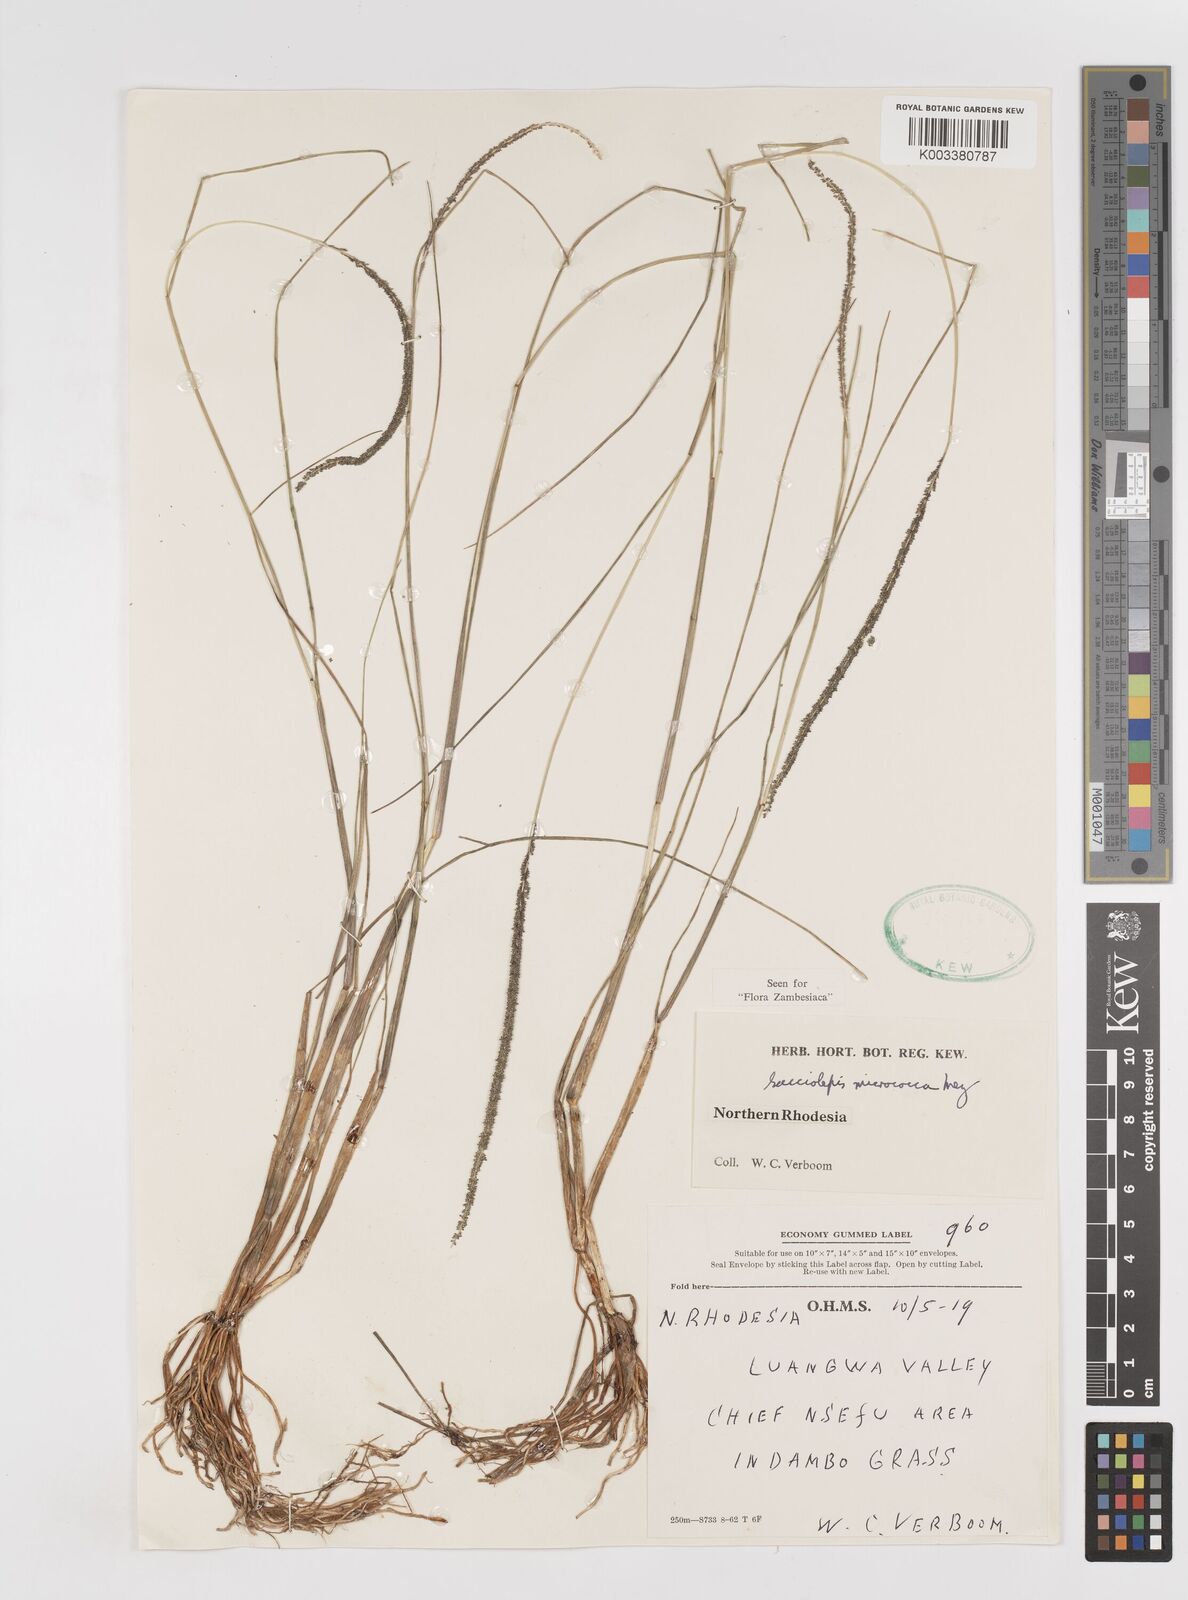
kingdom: Plantae
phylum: Tracheophyta
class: Liliopsida
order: Poales
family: Poaceae
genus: Sacciolepis
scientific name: Sacciolepis micrococca
